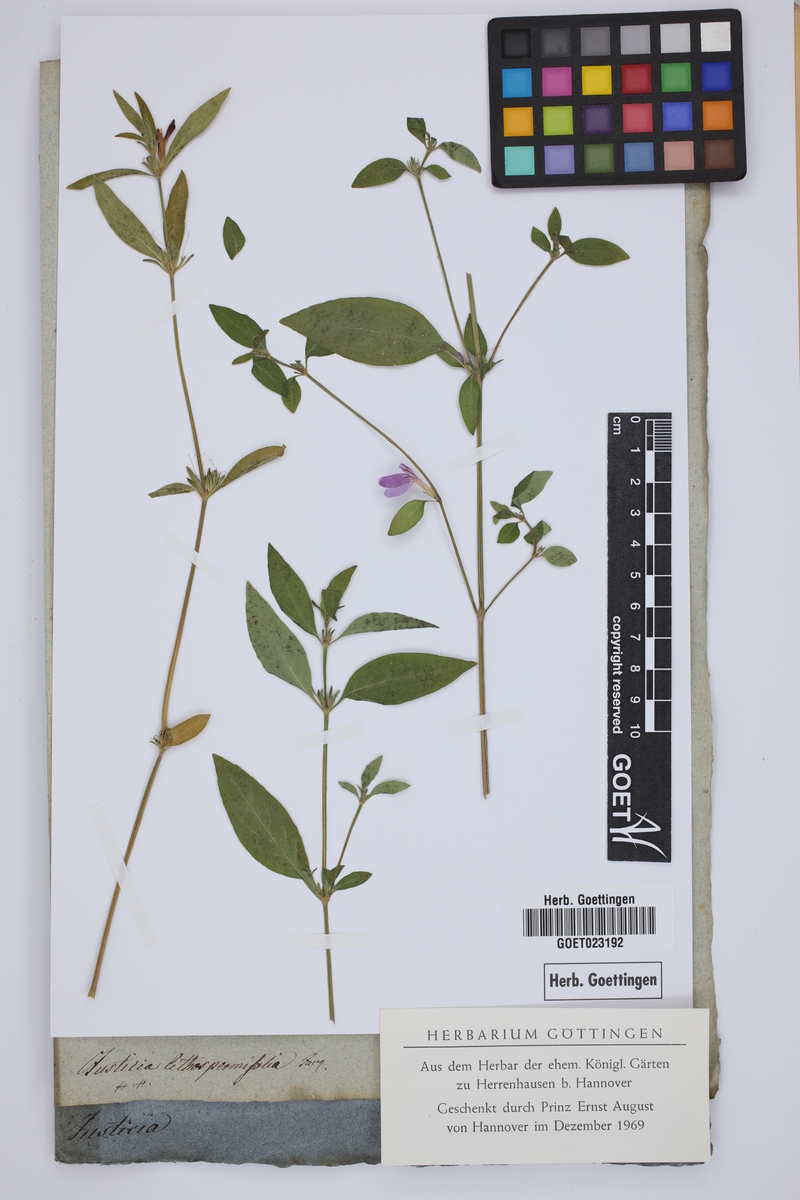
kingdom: Plantae
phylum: Tracheophyta
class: Magnoliopsida
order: Lamiales
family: Acanthaceae
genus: Justicia
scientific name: Justicia ladanoides
